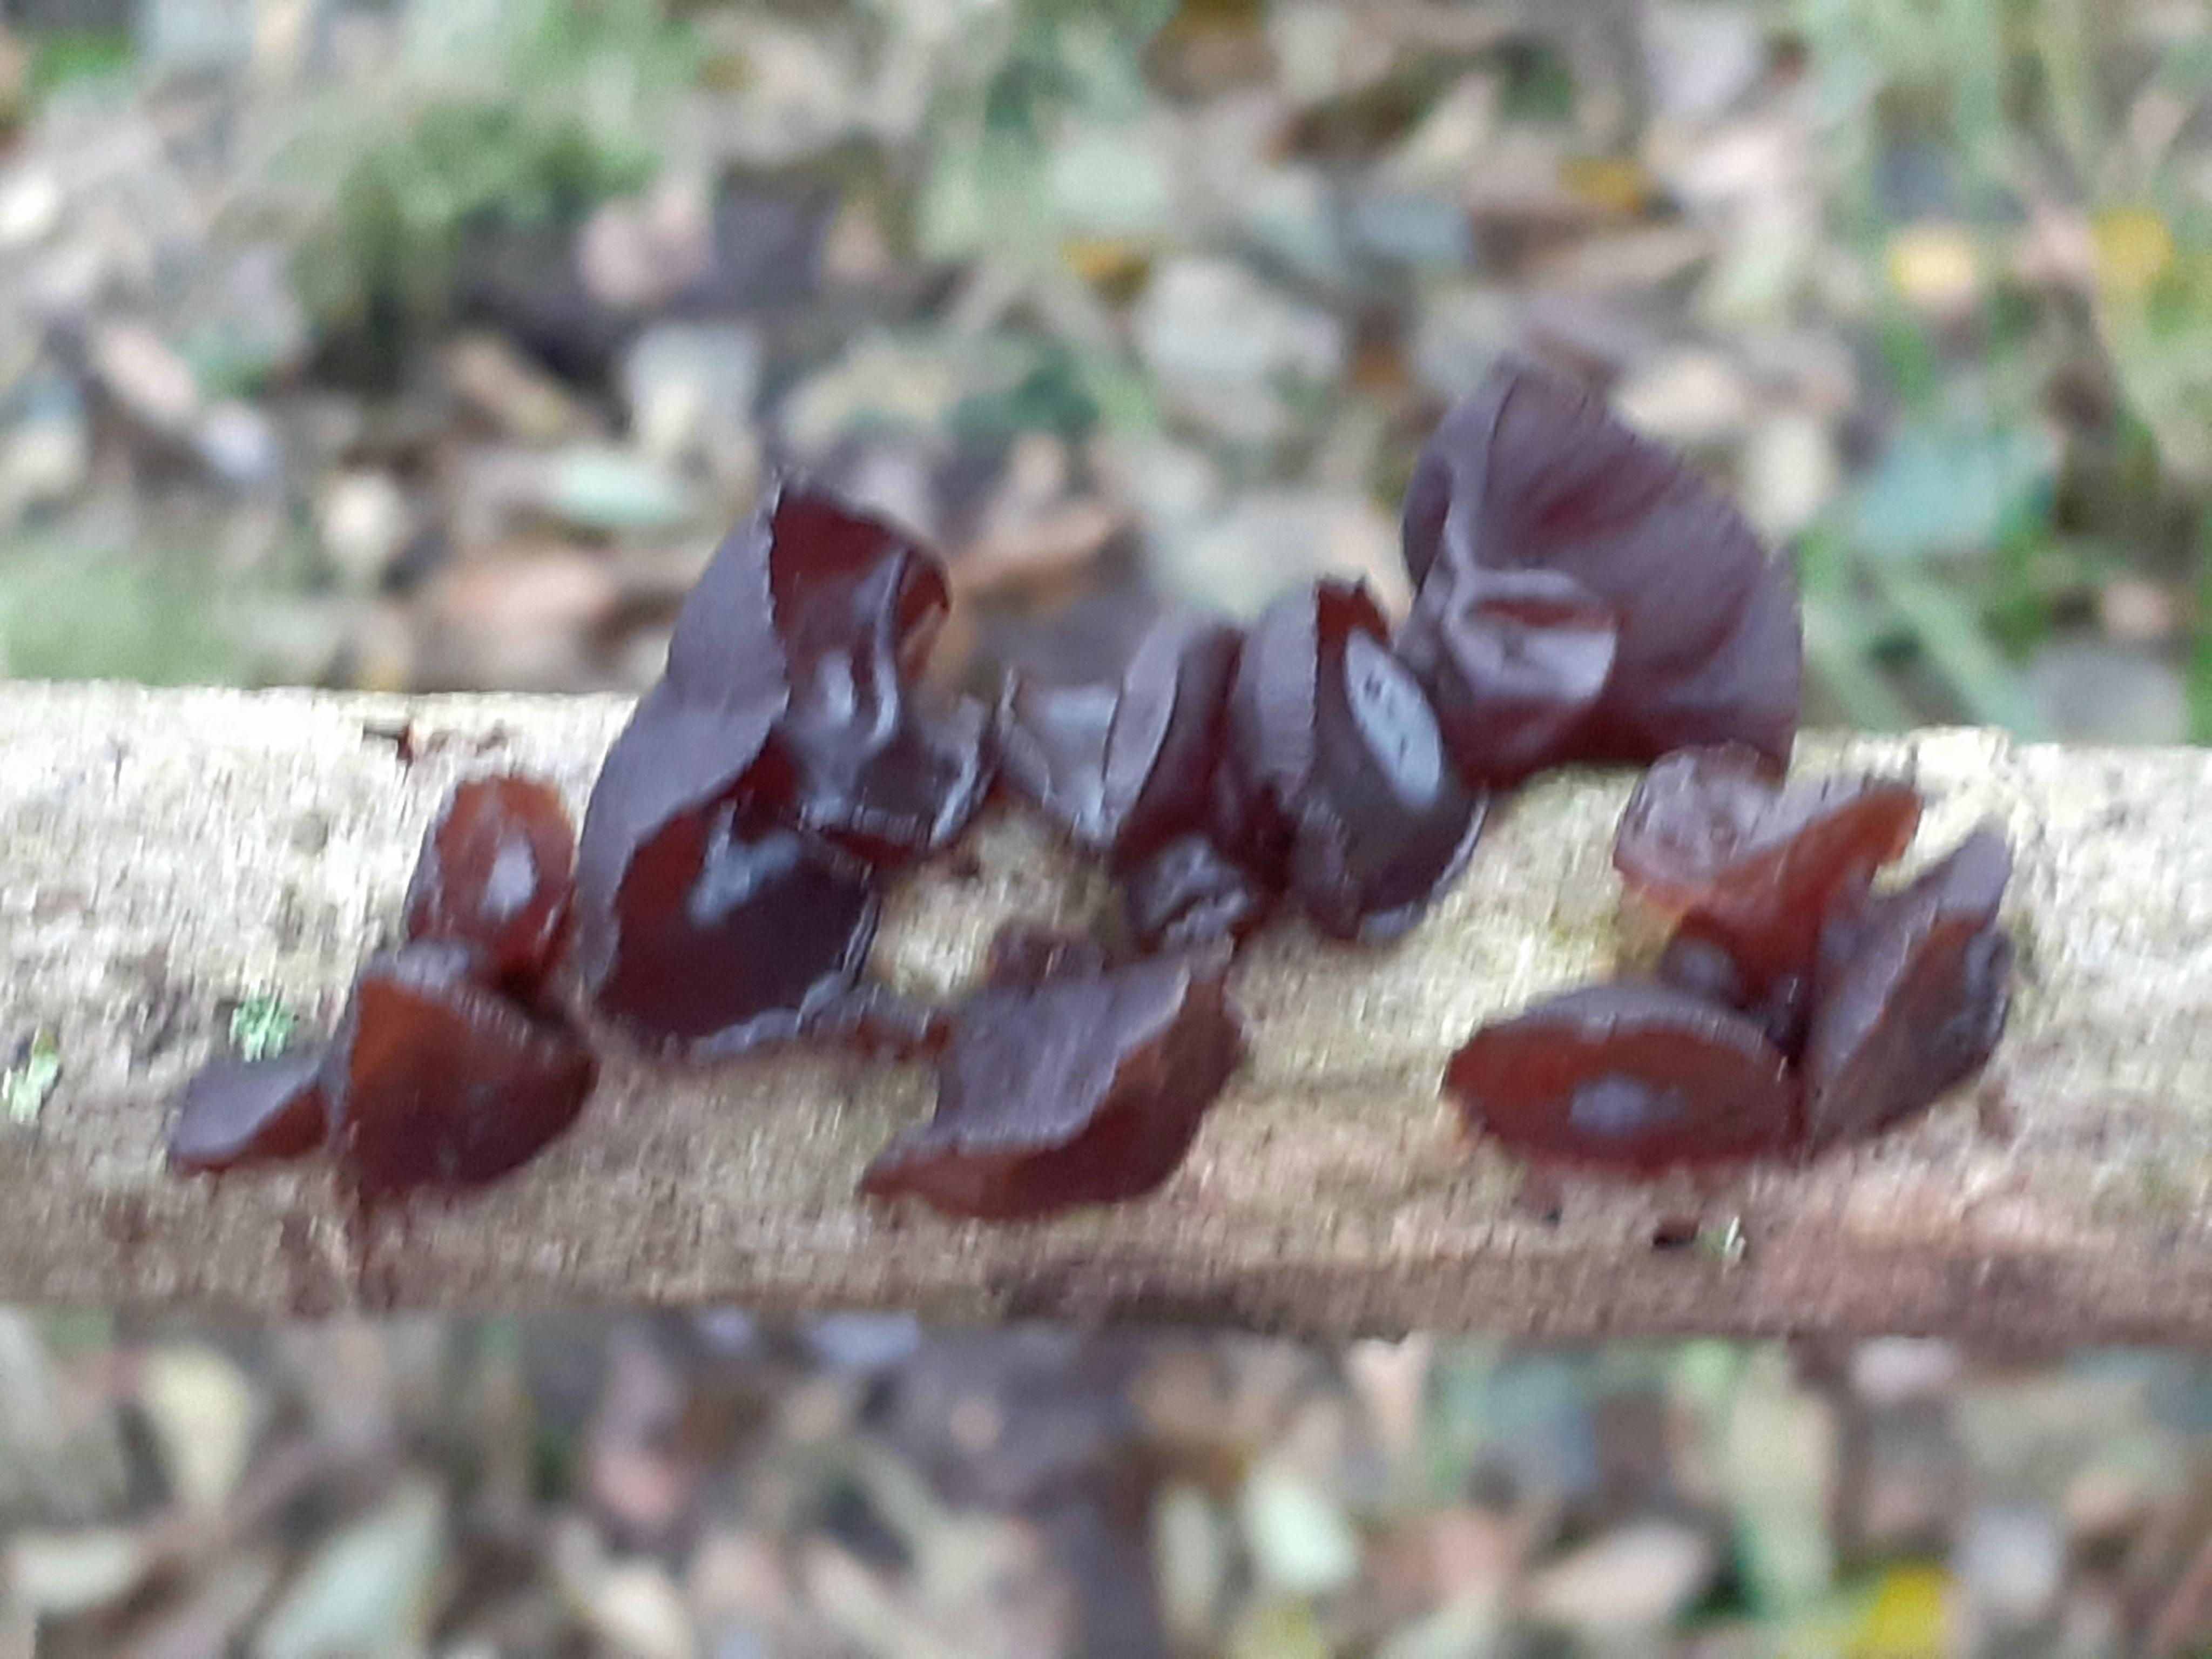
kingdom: Fungi
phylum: Basidiomycota
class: Agaricomycetes
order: Auriculariales
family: Auriculariaceae
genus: Exidia
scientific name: Exidia recisa
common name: pile-bævretop
